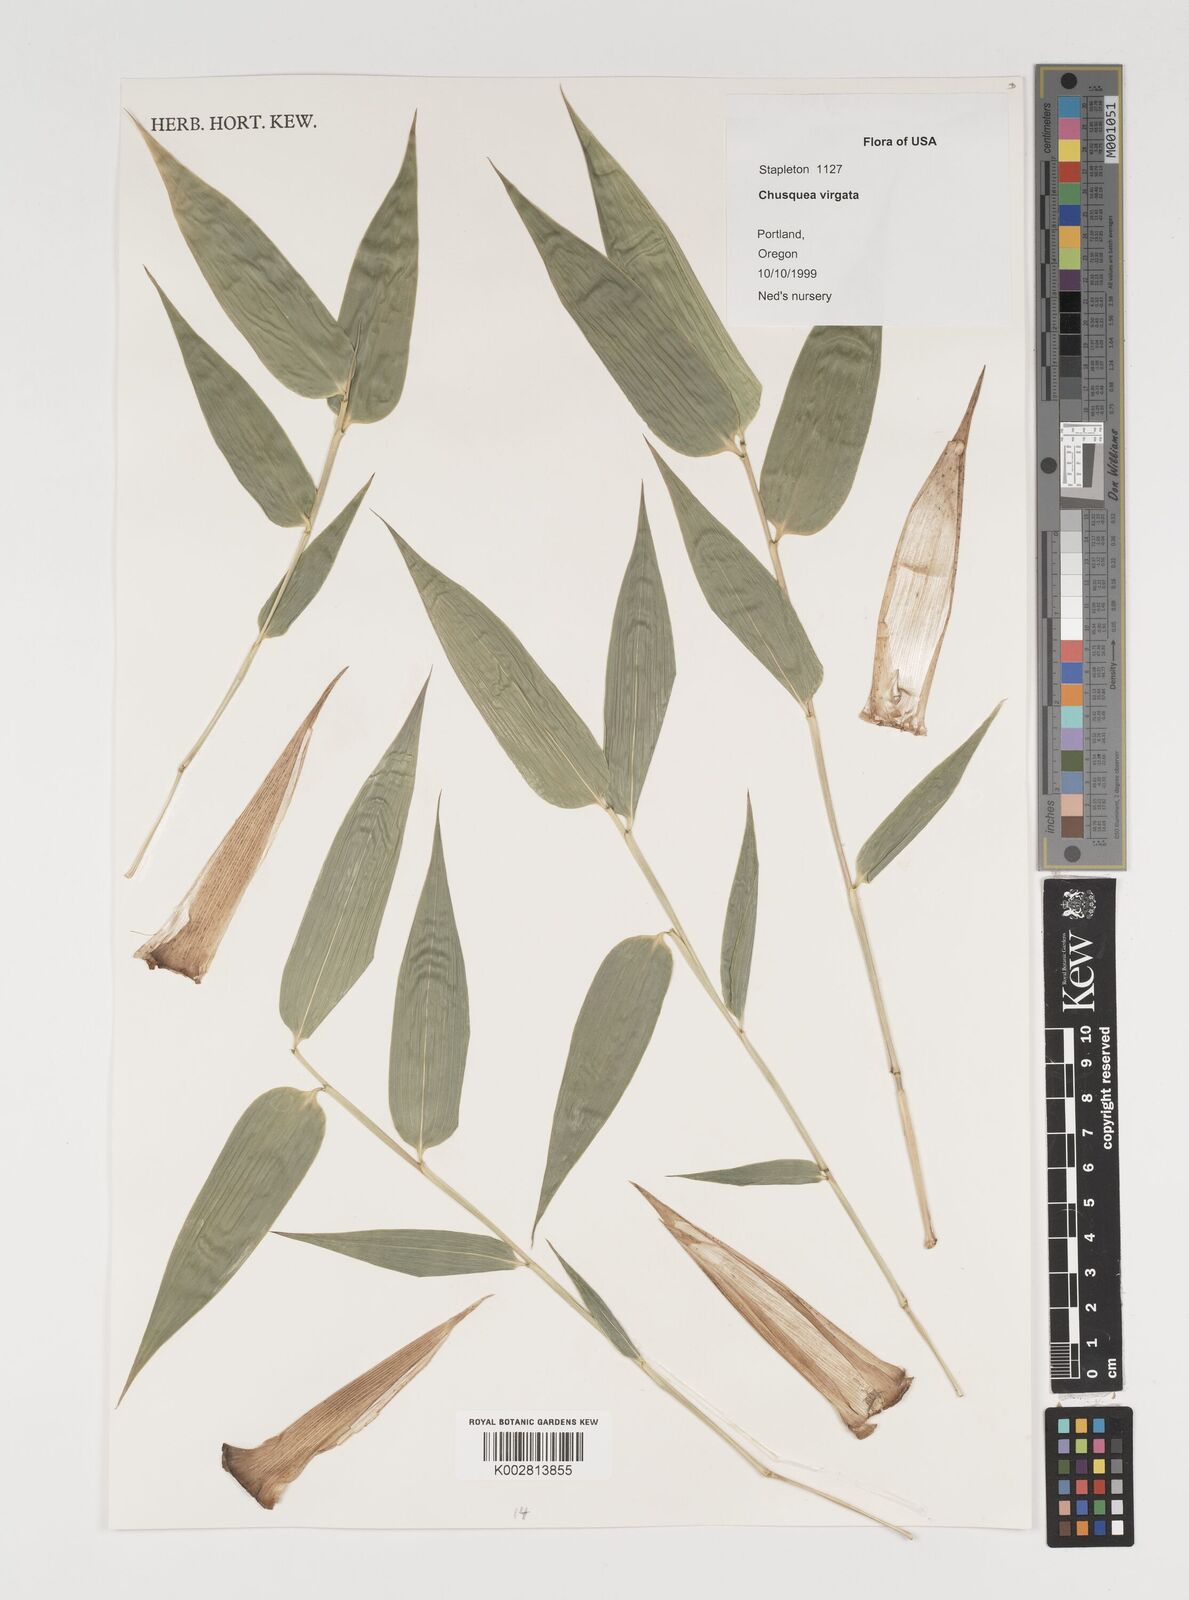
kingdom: Plantae
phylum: Tracheophyta
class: Liliopsida
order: Poales
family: Poaceae
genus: Chusquea
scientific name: Chusquea virgata
